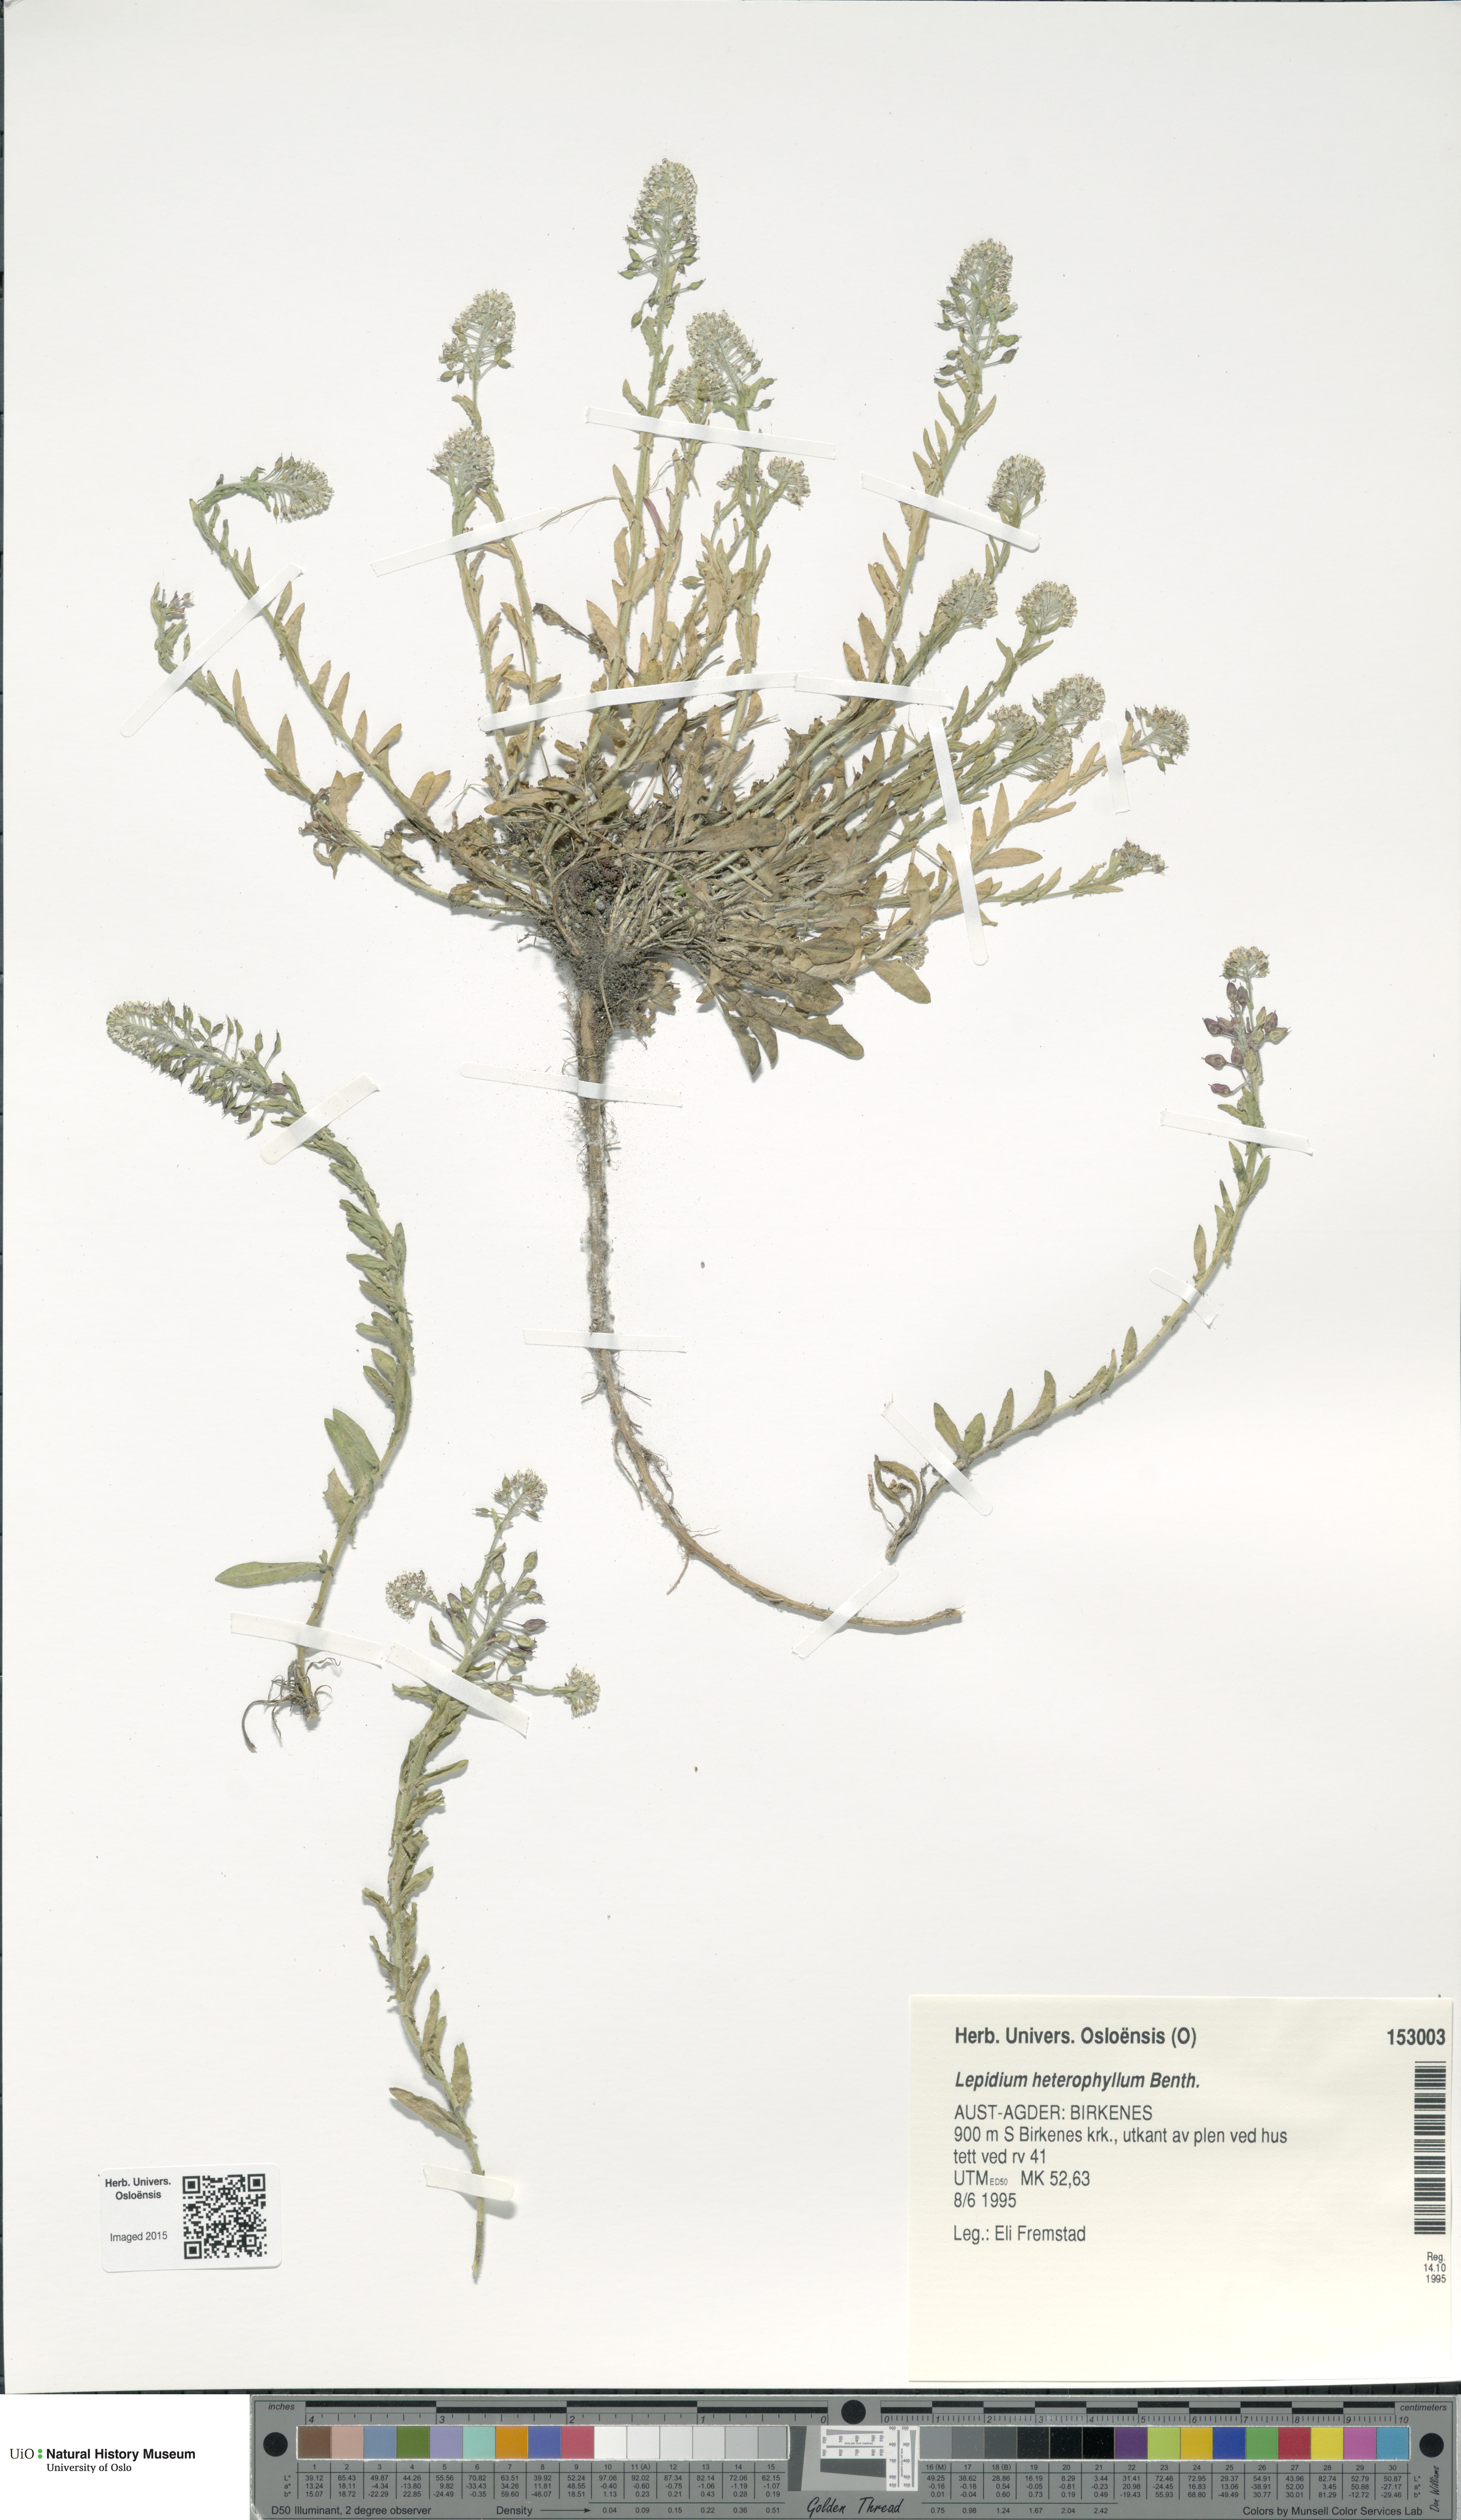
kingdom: Plantae
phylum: Tracheophyta
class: Magnoliopsida
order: Brassicales
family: Brassicaceae
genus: Lepidium
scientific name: Lepidium heterophyllum
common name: Smith's pepperwort
